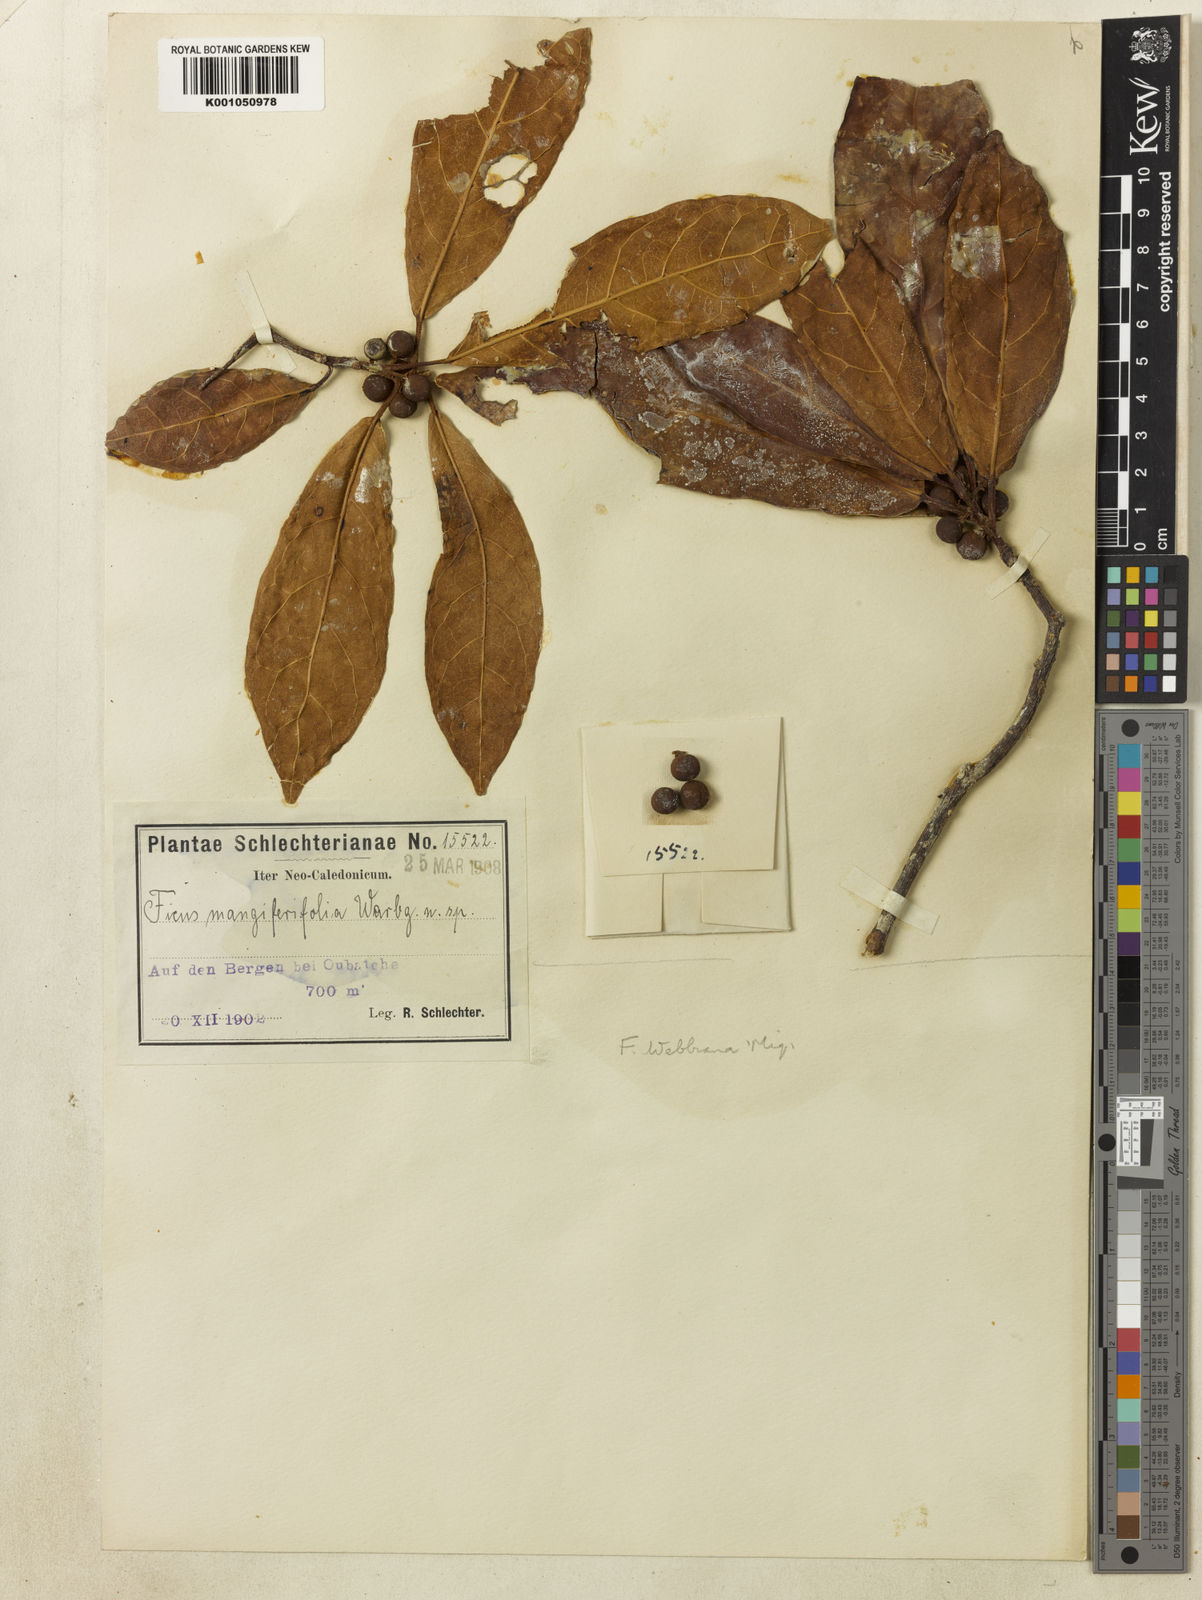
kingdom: Plantae
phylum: Tracheophyta
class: Magnoliopsida
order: Rosales
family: Moraceae
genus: Ficus
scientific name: Ficus webbiana
